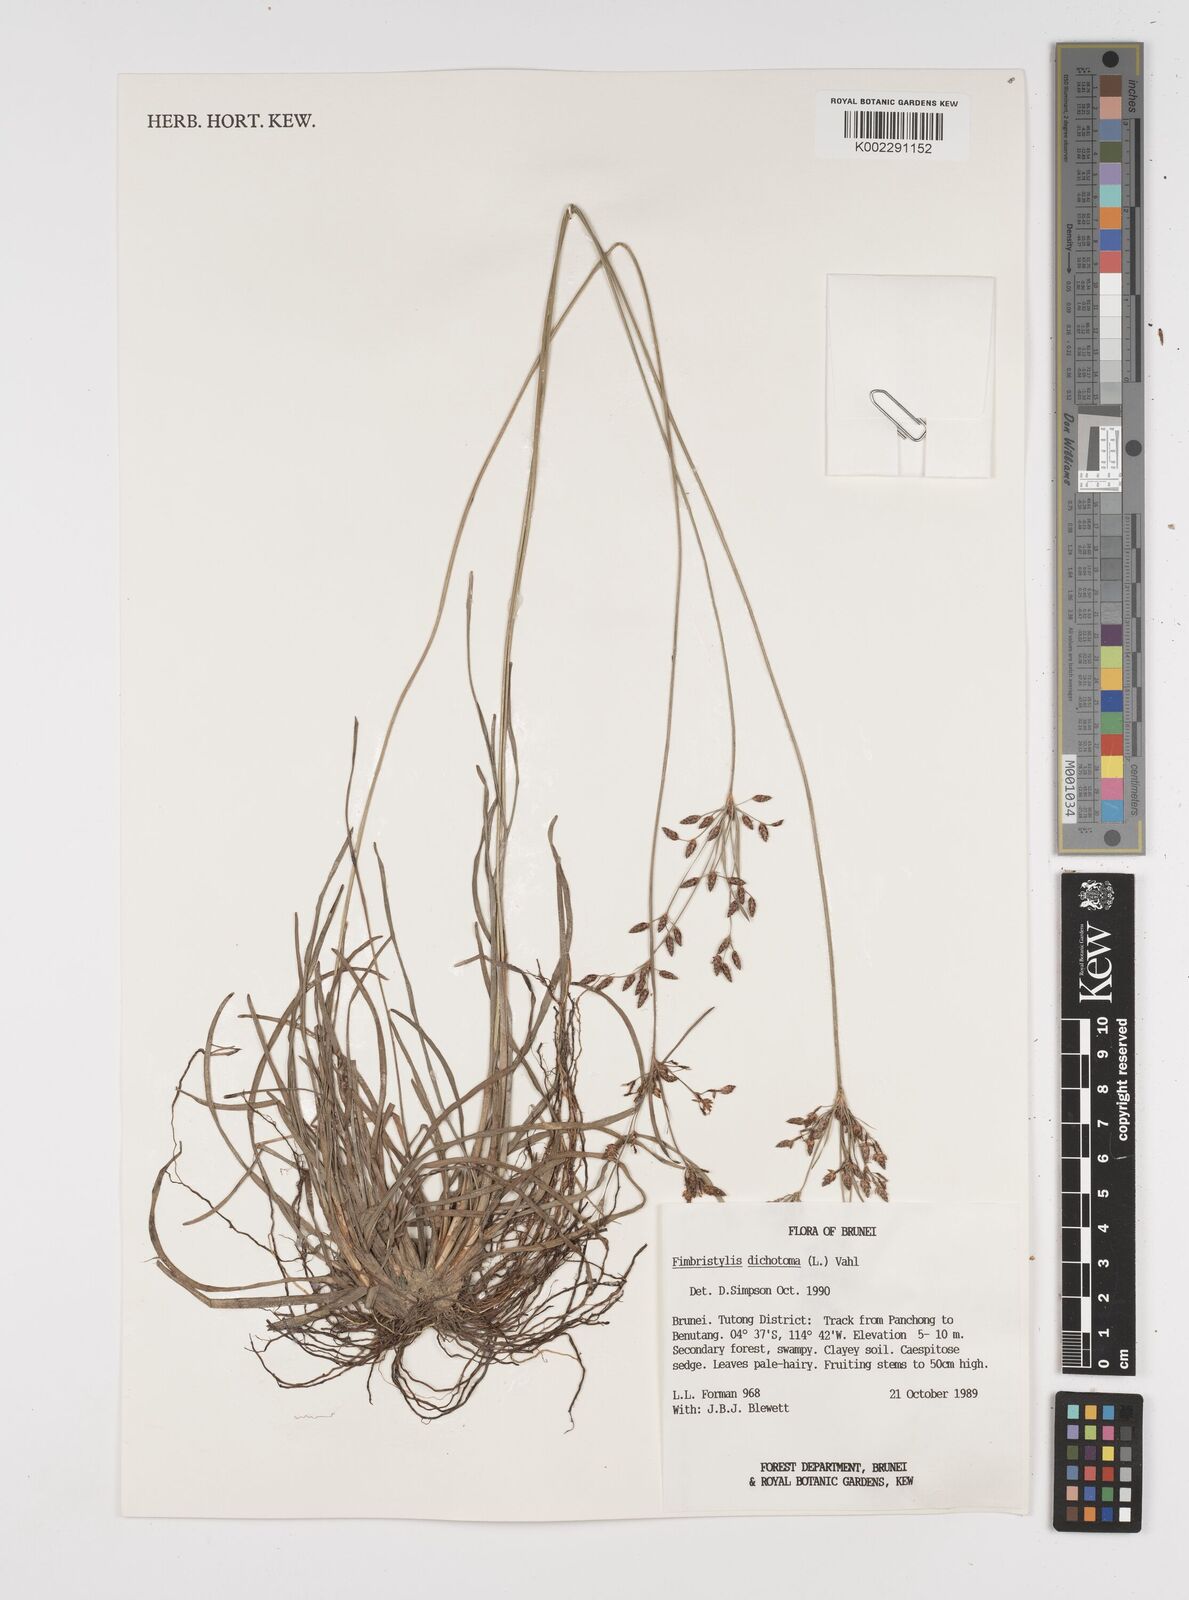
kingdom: Plantae
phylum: Tracheophyta
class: Liliopsida
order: Poales
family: Cyperaceae
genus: Fimbristylis
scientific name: Fimbristylis dichotoma
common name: Forked fimbry
